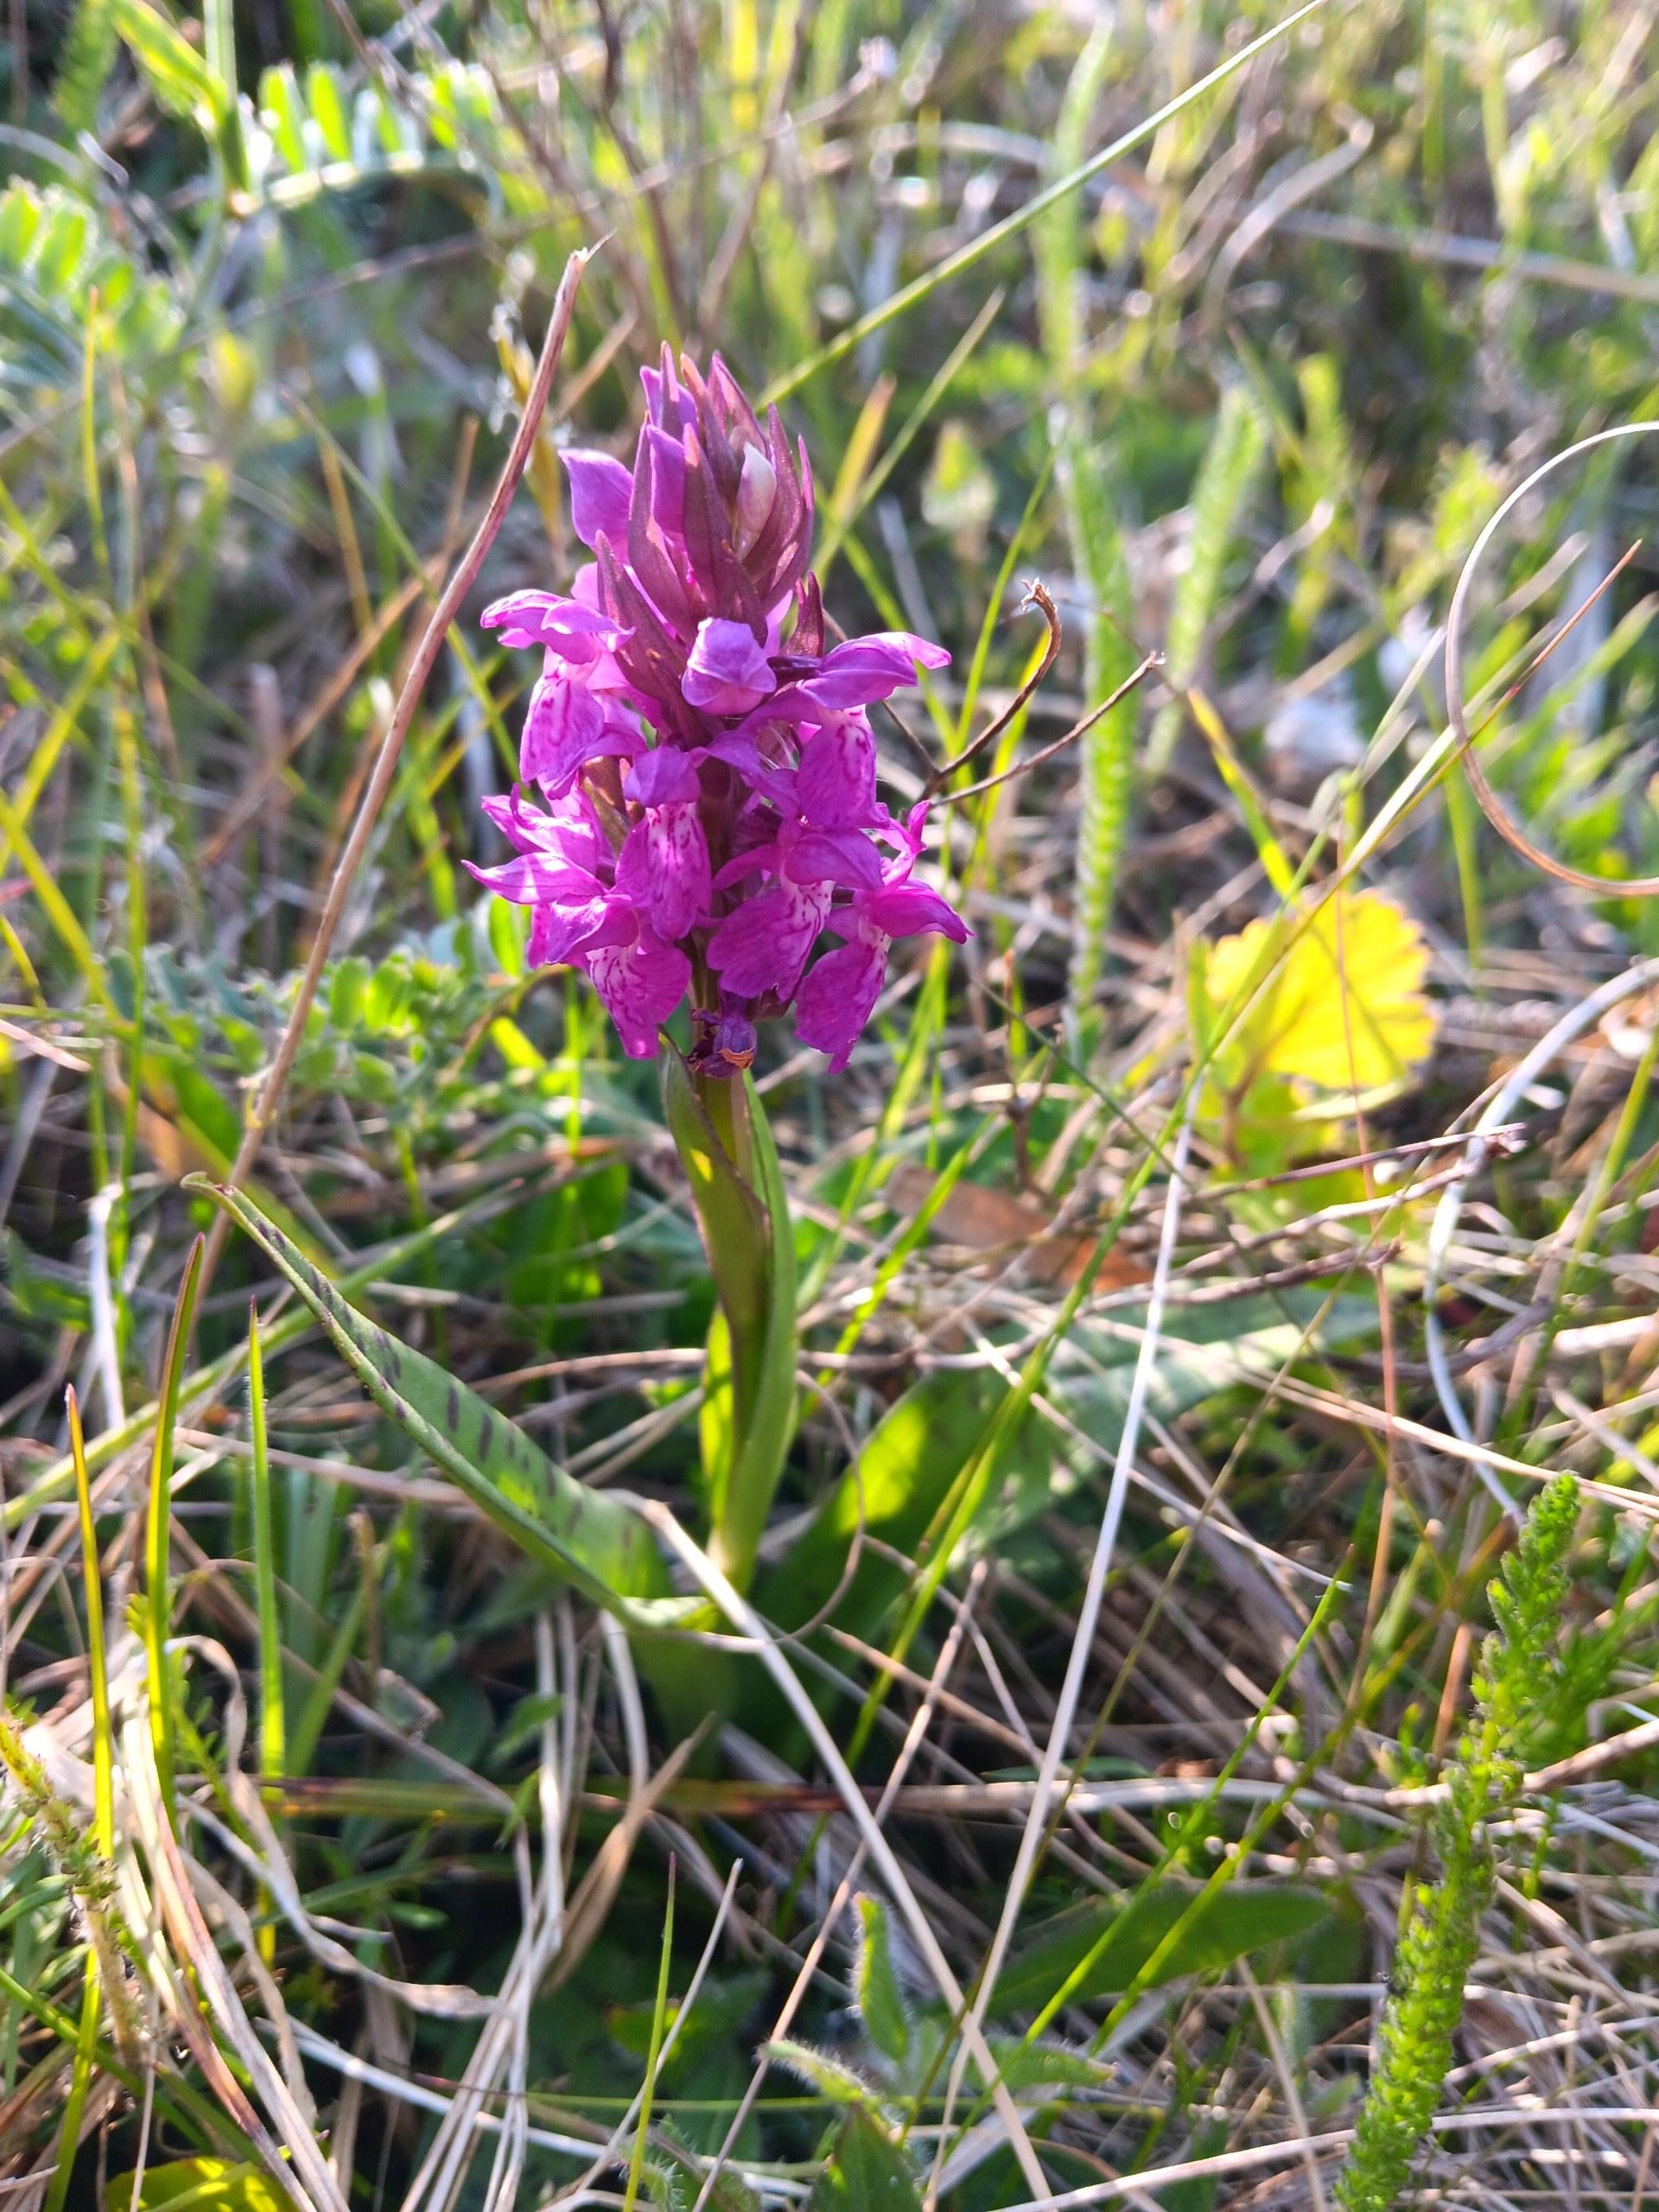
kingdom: Plantae
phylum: Tracheophyta
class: Liliopsida
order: Asparagales
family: Orchidaceae
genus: Dactylorhiza
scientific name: Dactylorhiza majalis
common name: Maj-gøgeurt
